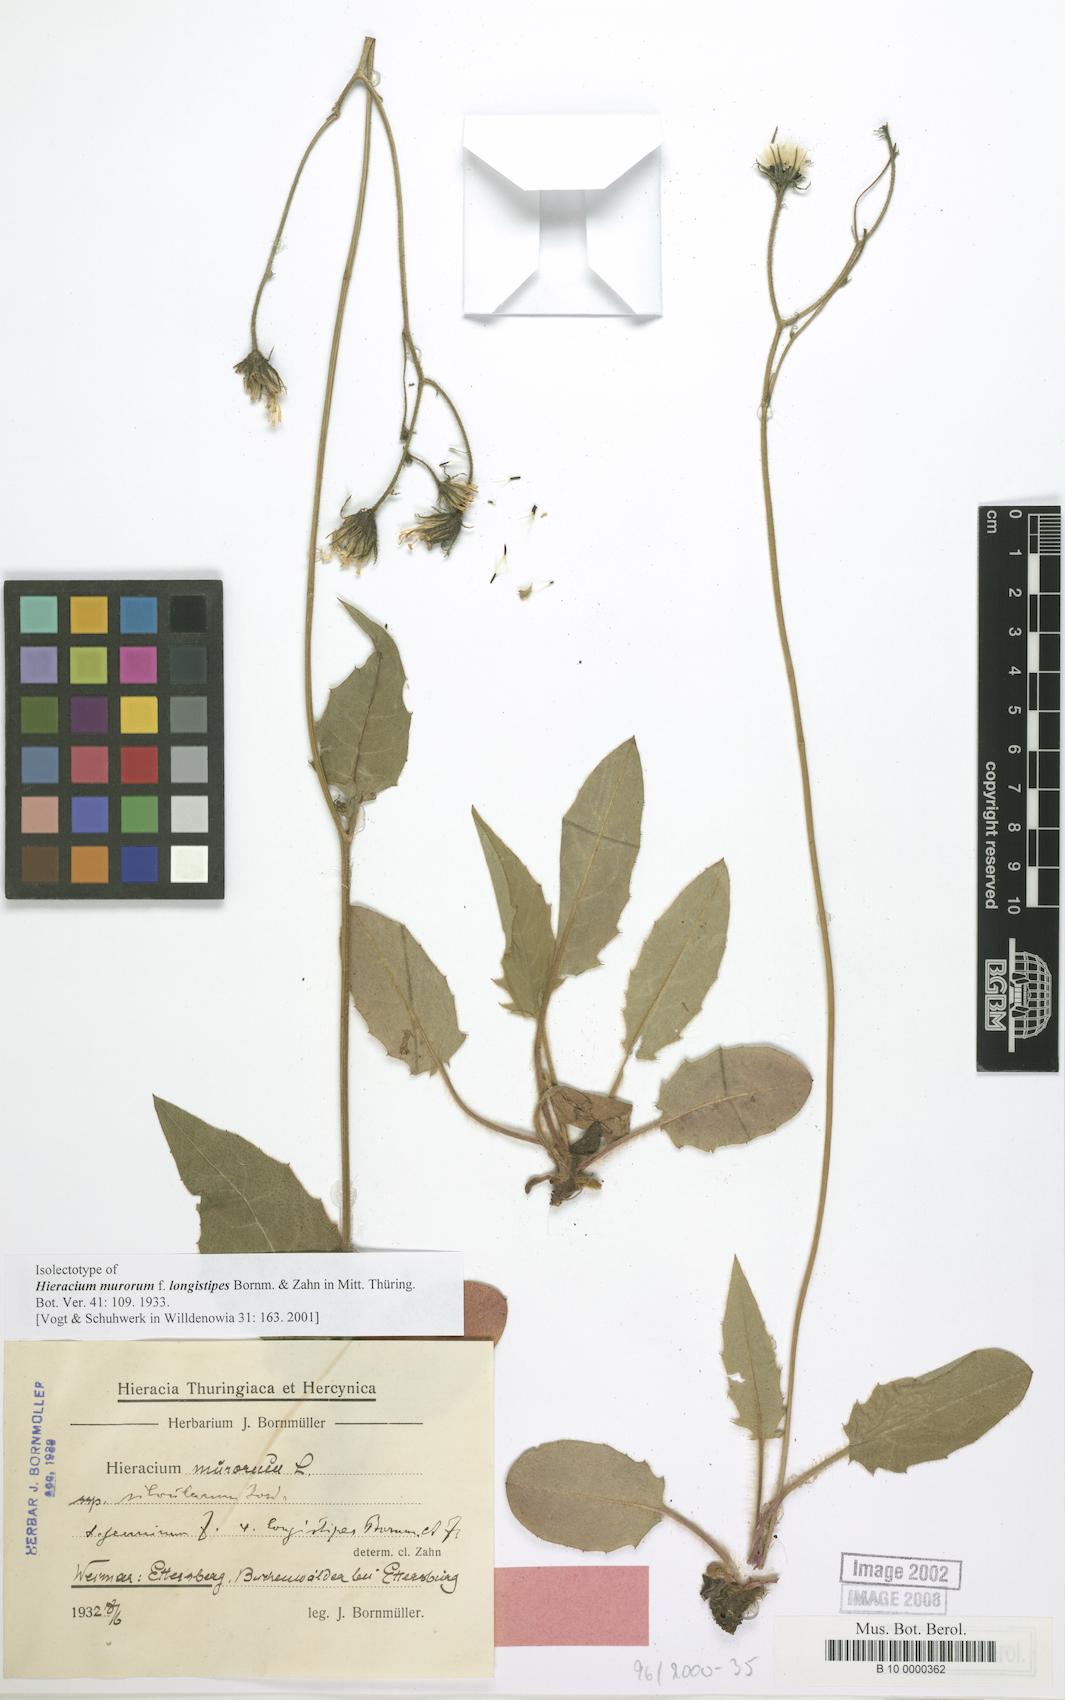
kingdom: Plantae
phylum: Tracheophyta
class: Magnoliopsida
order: Asterales
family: Asteraceae
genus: Hieracium
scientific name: Hieracium murorum
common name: Wall hawkweed
